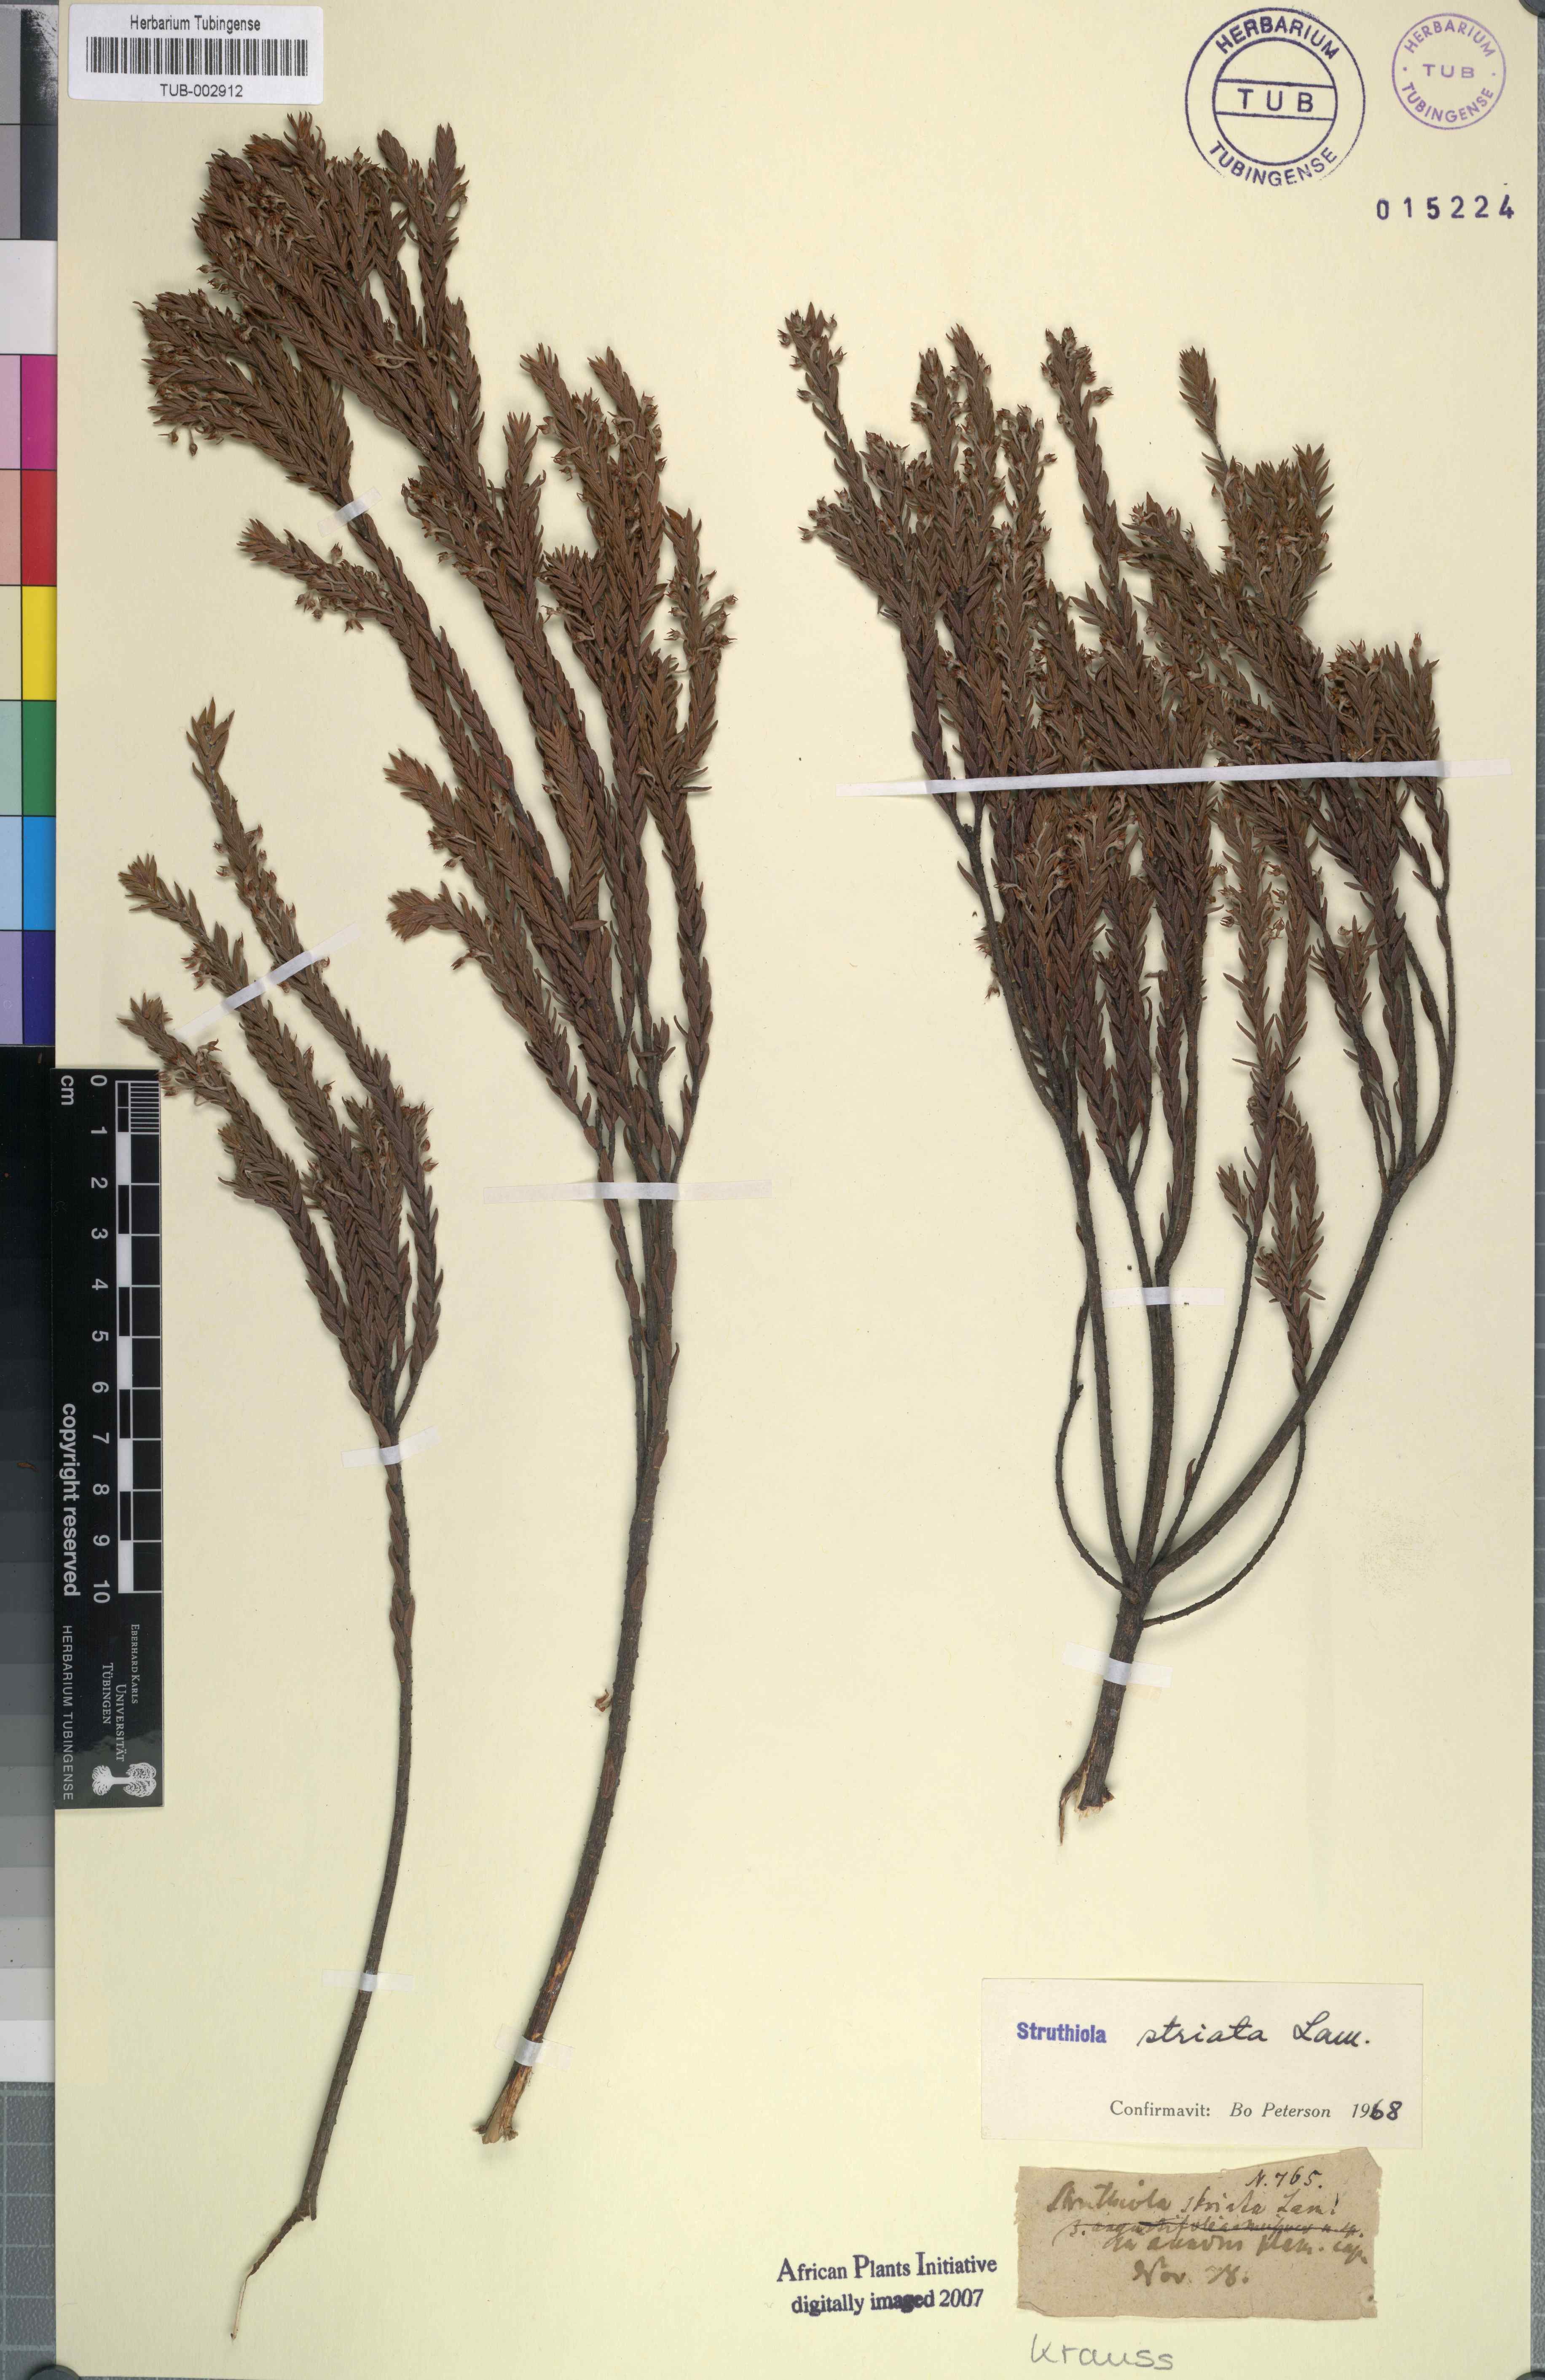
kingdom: Plantae
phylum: Tracheophyta
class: Magnoliopsida
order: Malvales
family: Thymelaeaceae
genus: Struthiola
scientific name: Struthiola striata
